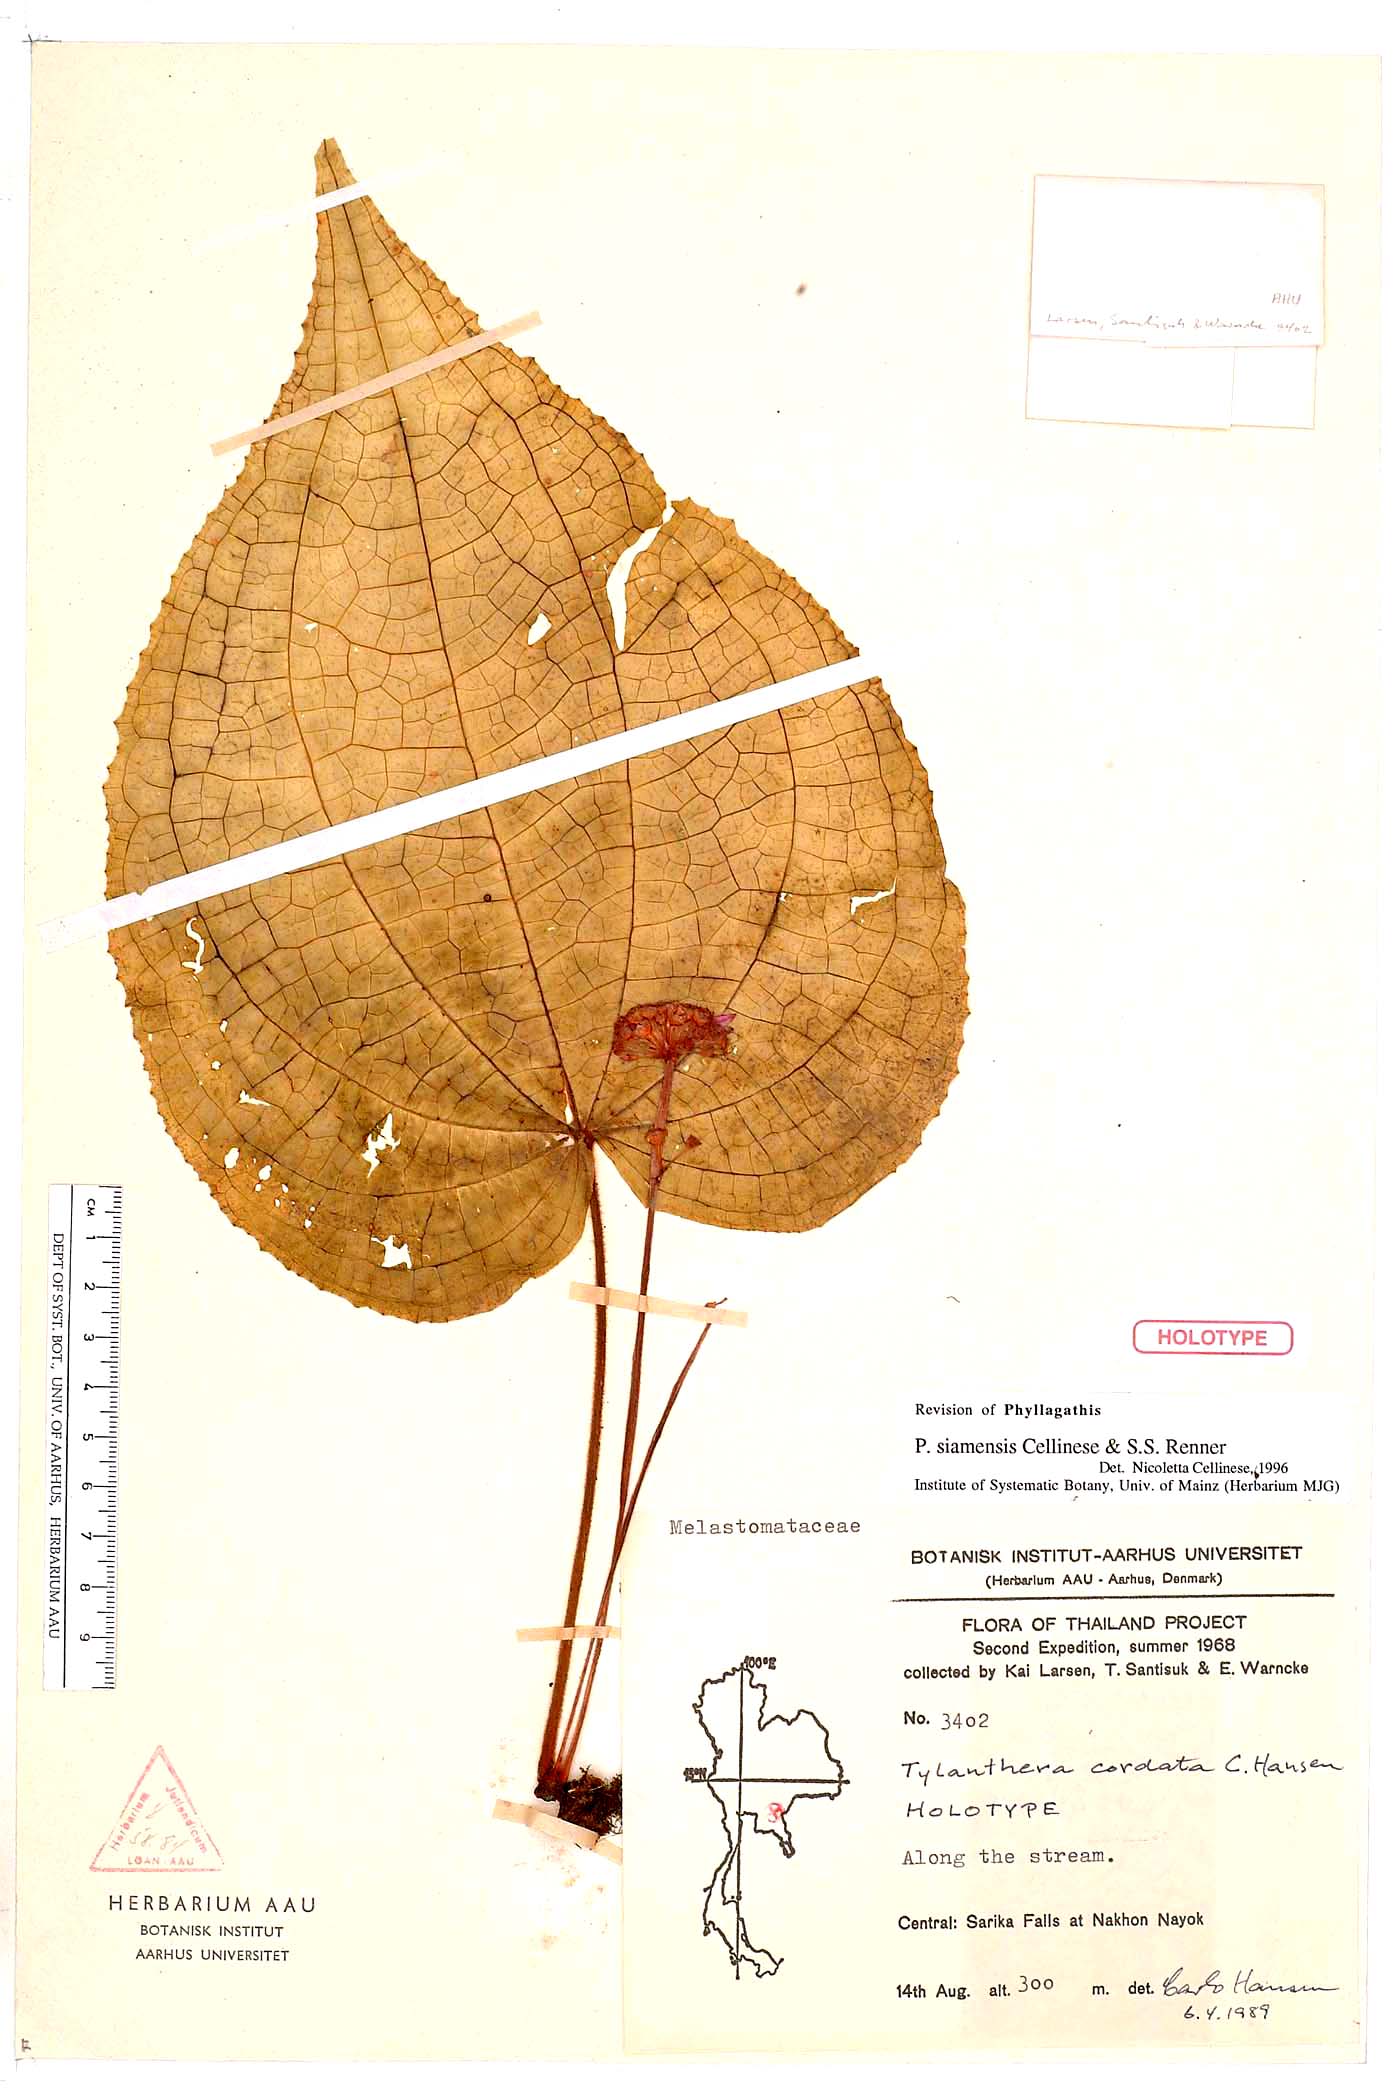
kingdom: Plantae
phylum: Tracheophyta
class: Magnoliopsida
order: Myrtales
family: Melastomataceae
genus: Tylanthera
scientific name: Tylanthera cordata
